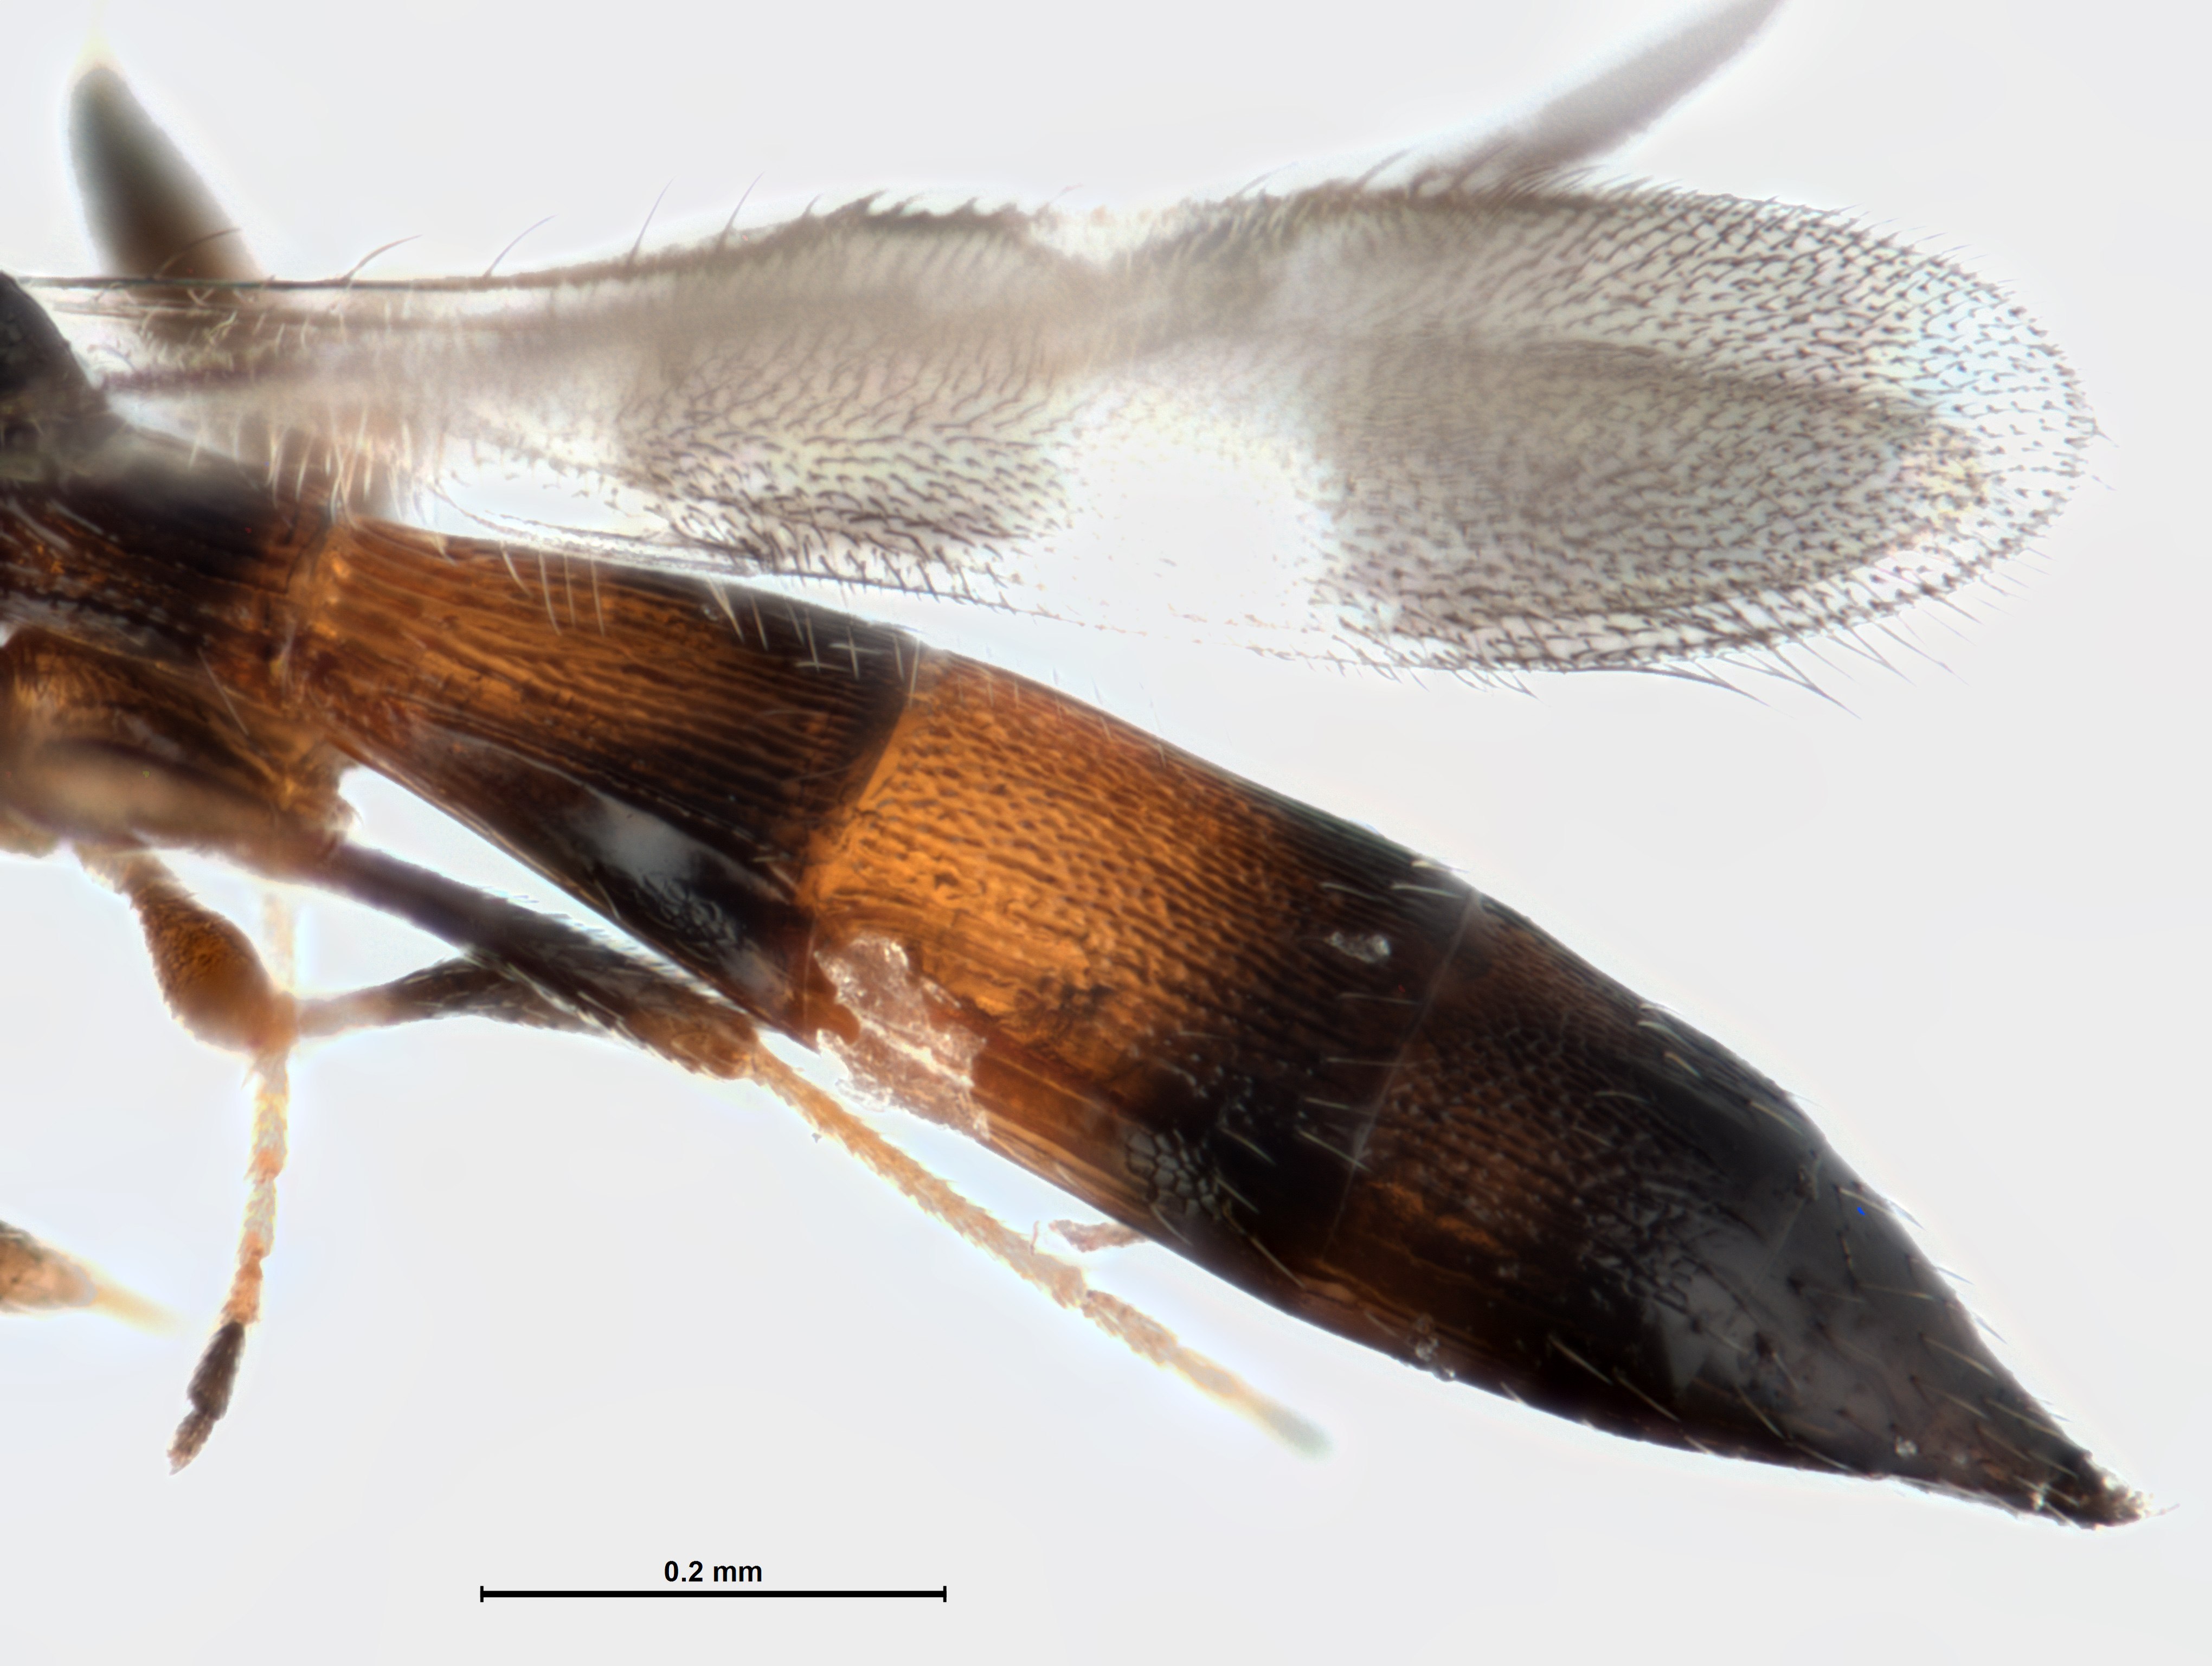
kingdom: Animalia
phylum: Arthropoda
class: Insecta
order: Hymenoptera
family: Scelionidae
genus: Calotelea
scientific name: Calotelea
